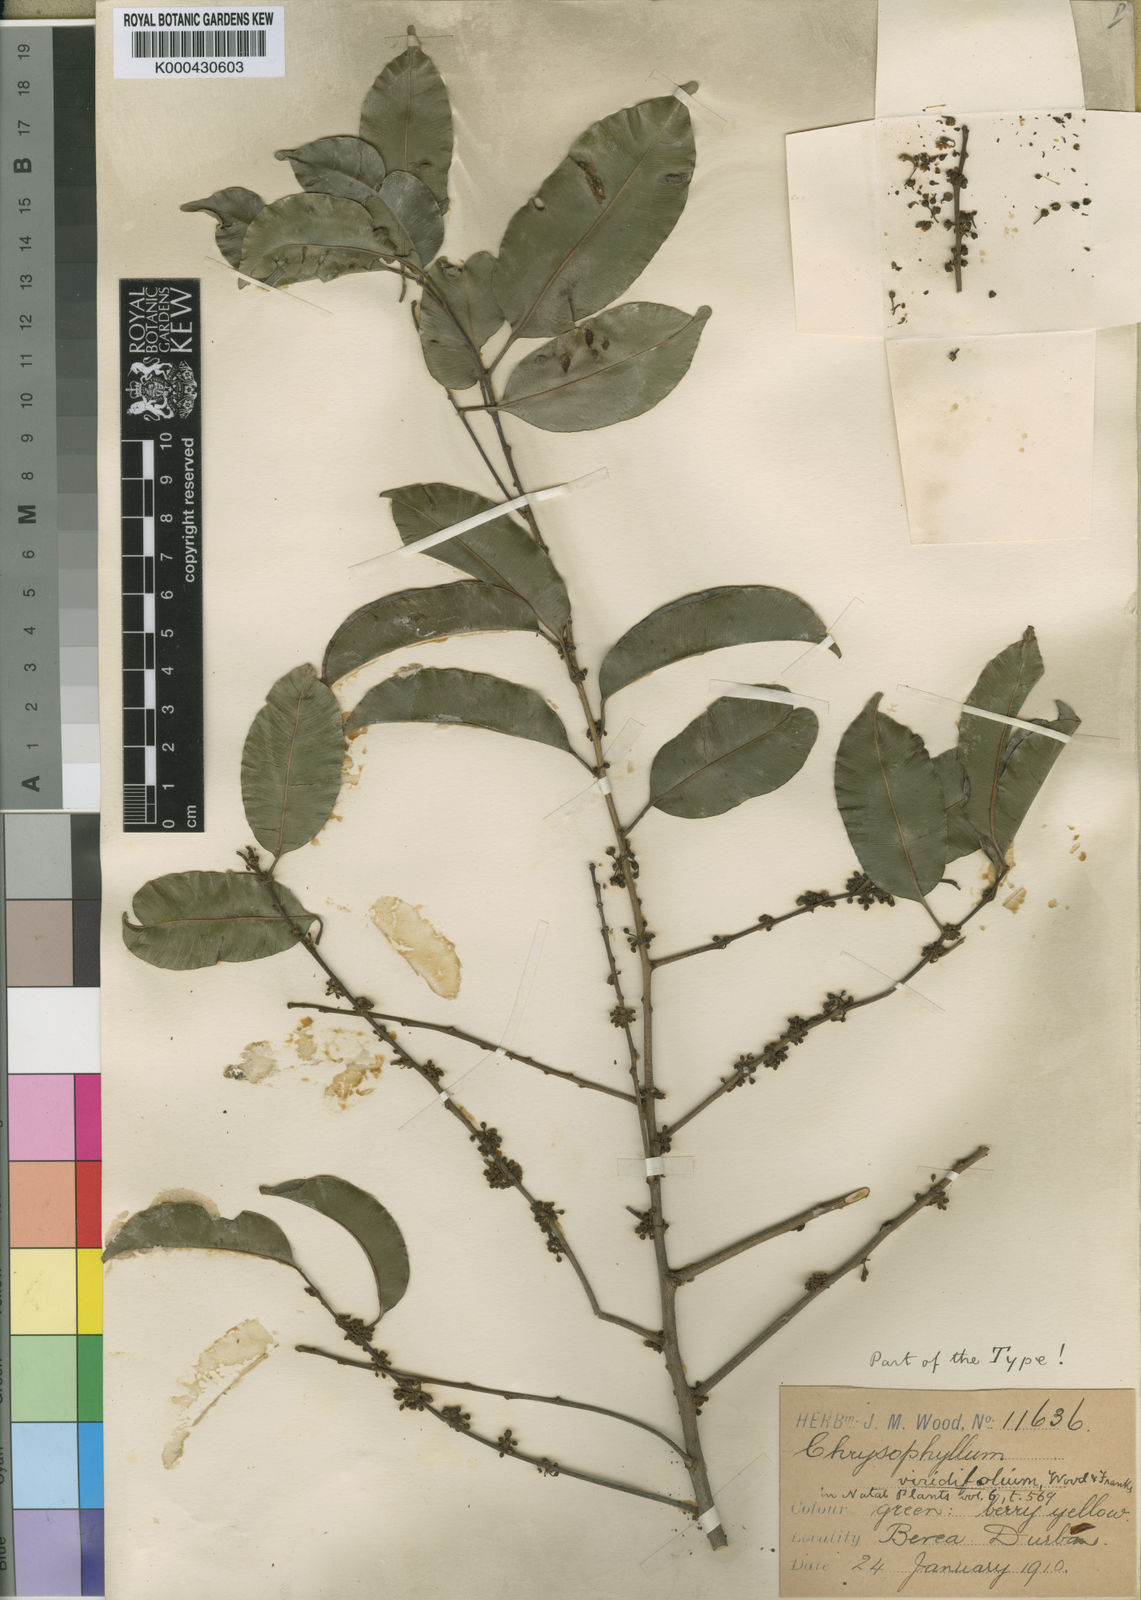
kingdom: Plantae
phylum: Tracheophyta
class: Magnoliopsida
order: Ericales
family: Sapotaceae
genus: Donella
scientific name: Donella viridifolia
